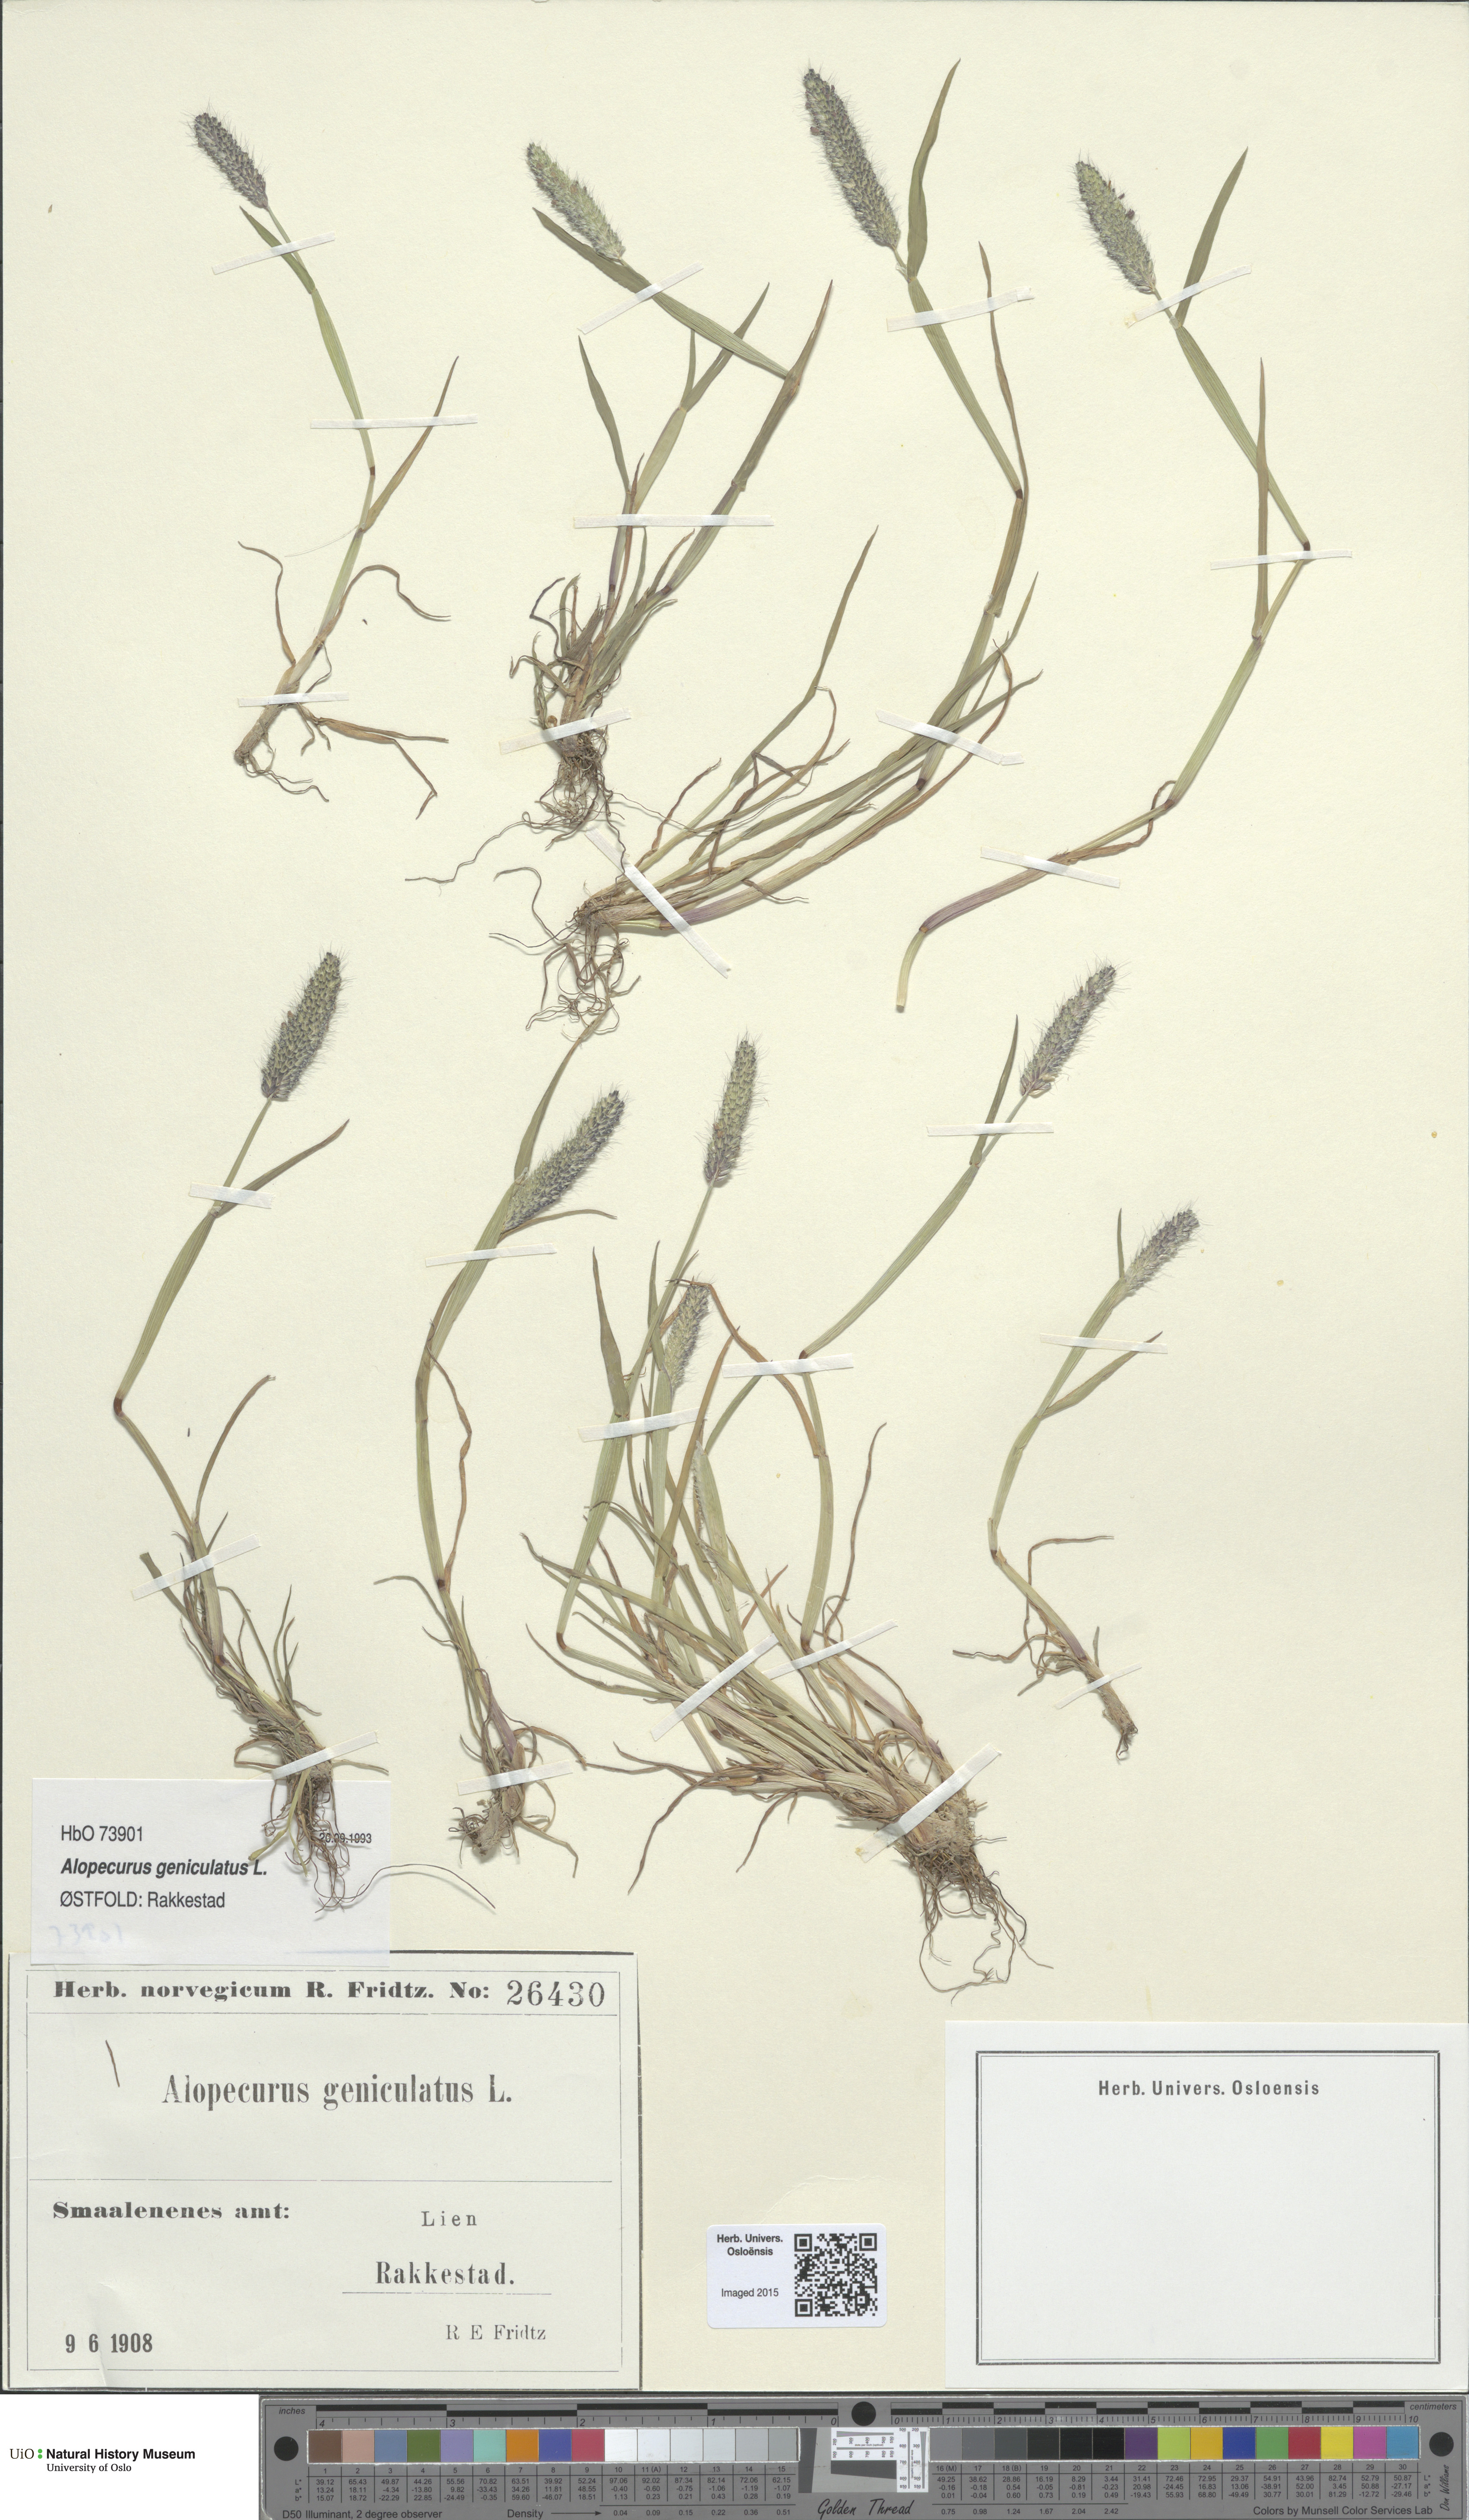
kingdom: Plantae
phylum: Tracheophyta
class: Liliopsida
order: Poales
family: Poaceae
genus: Alopecurus
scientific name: Alopecurus geniculatus
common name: Water foxtail
